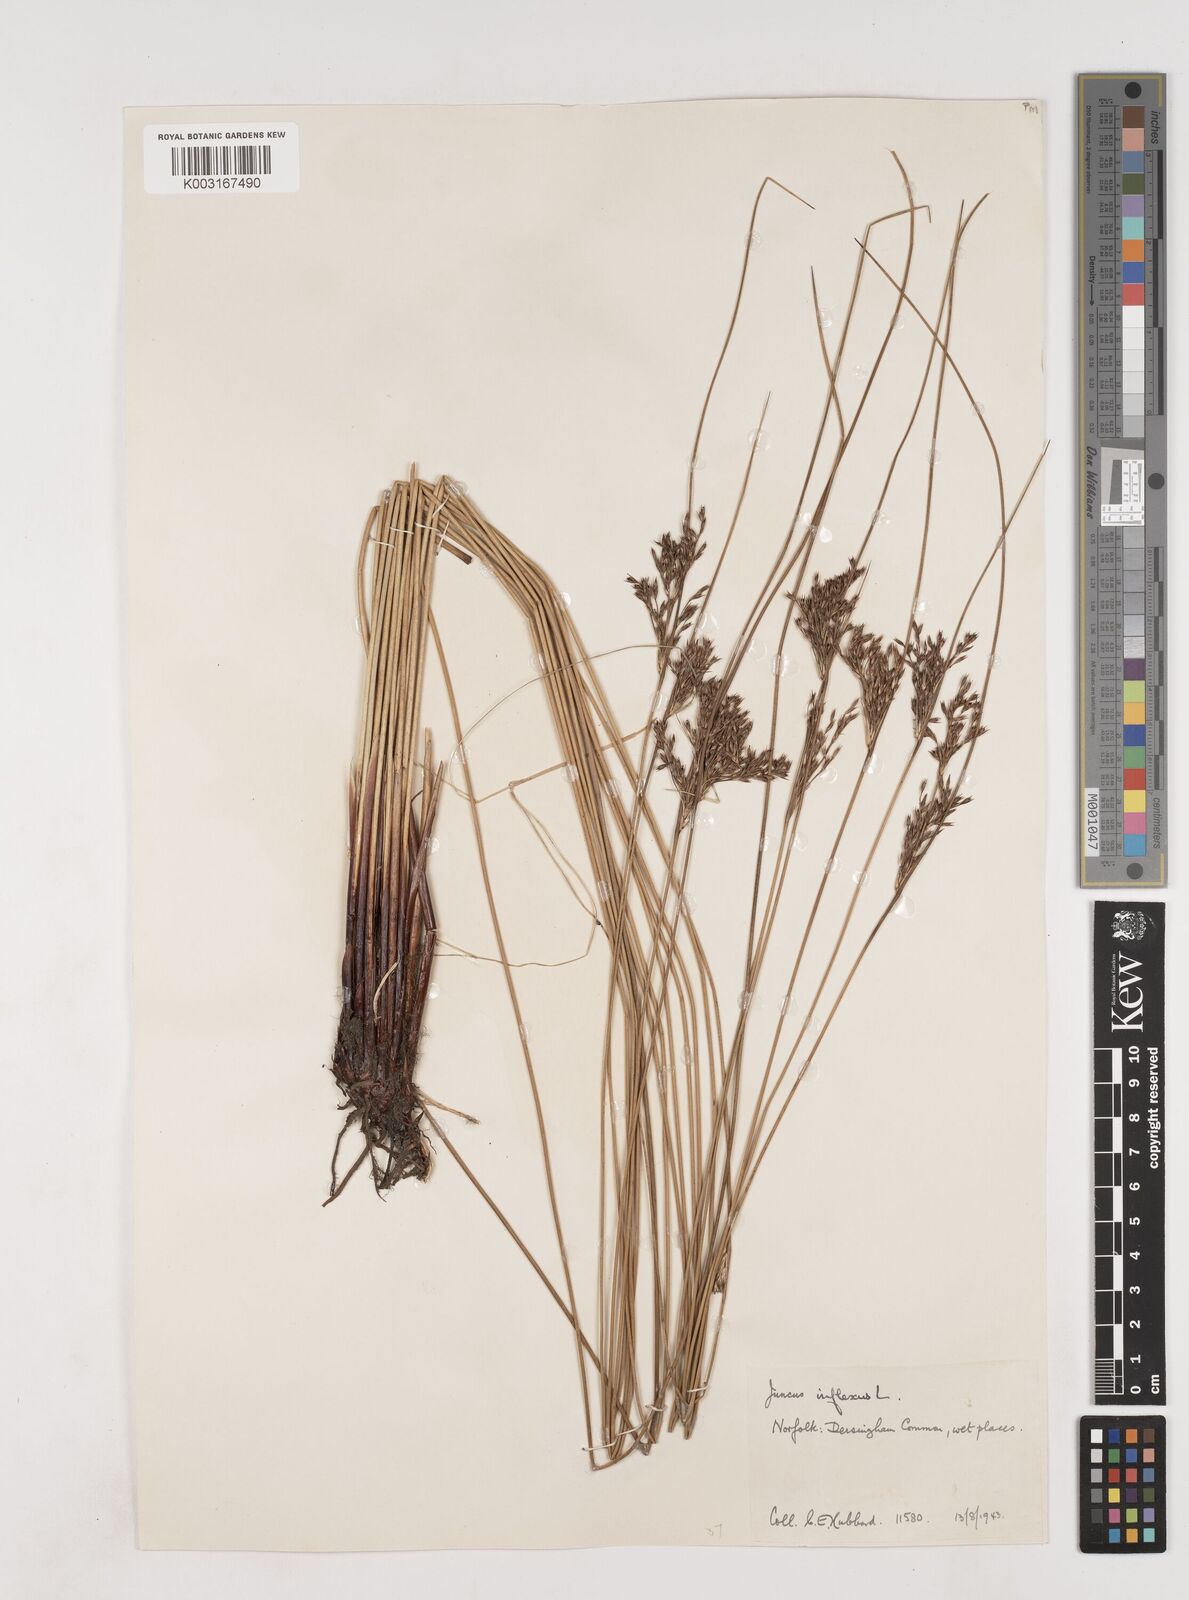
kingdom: Plantae
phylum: Tracheophyta
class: Liliopsida
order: Poales
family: Juncaceae
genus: Juncus
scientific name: Juncus inflexus
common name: Hard rush
